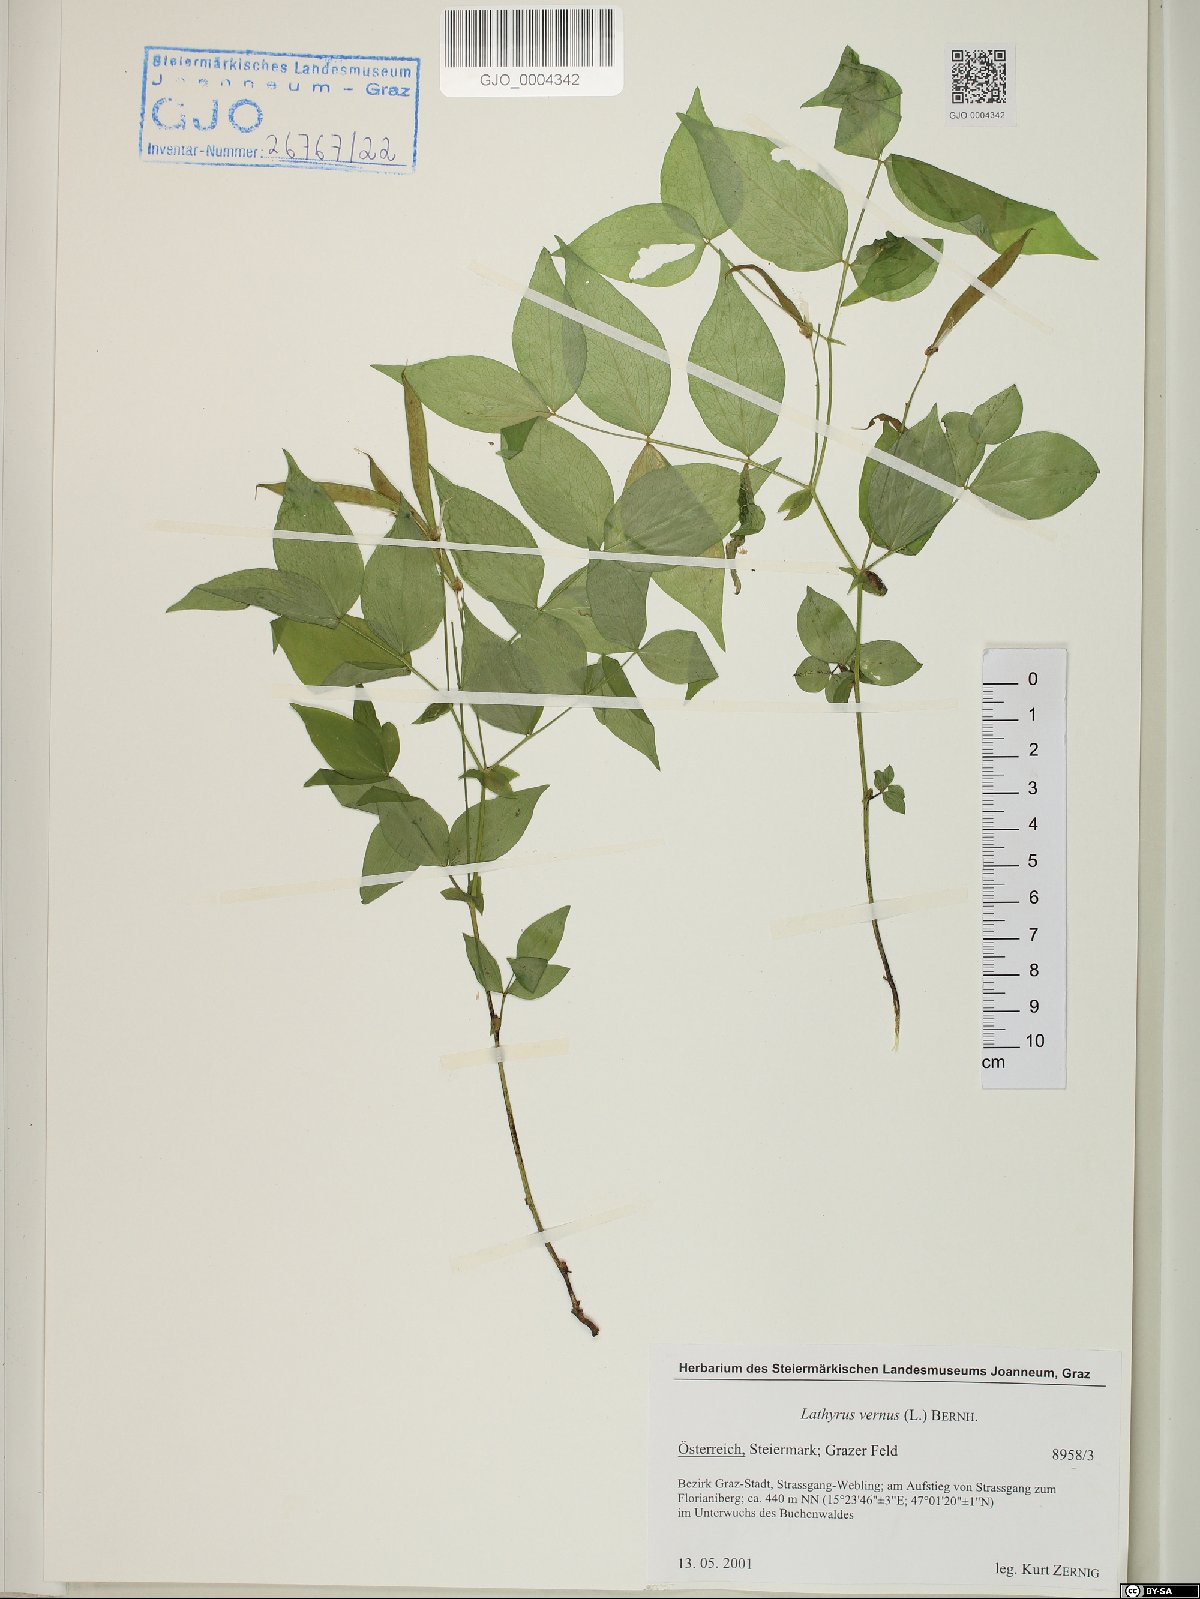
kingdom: Plantae
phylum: Tracheophyta
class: Magnoliopsida
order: Fabales
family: Fabaceae
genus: Lathyrus
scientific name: Lathyrus vernus
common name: Spring pea
